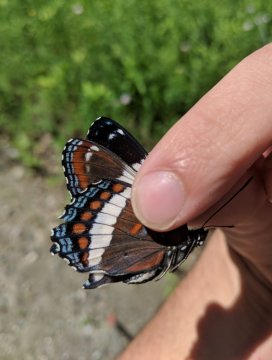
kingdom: Animalia
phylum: Arthropoda
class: Insecta
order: Lepidoptera
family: Nymphalidae
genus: Limenitis
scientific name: Limenitis arthemis
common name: Red-spotted Admiral
